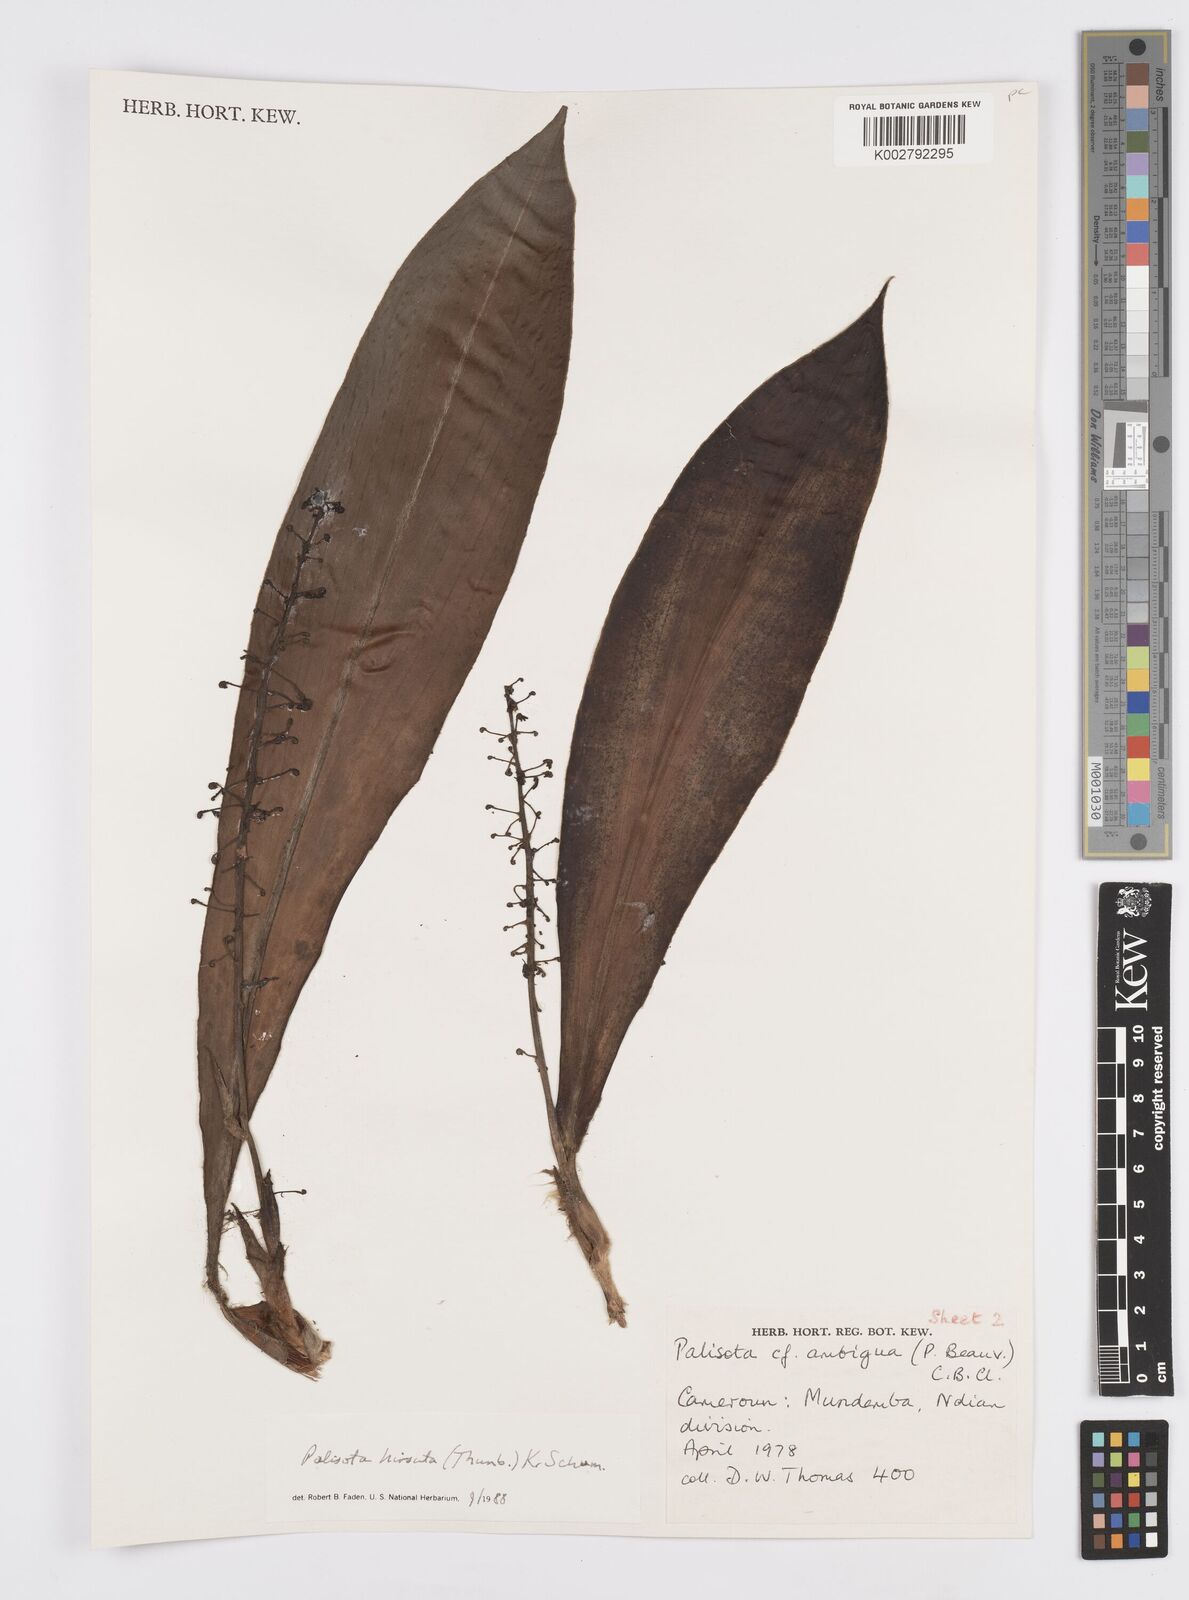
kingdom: Plantae
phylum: Tracheophyta
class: Liliopsida
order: Commelinales
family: Commelinaceae
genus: Palisota
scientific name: Palisota hirsuta
